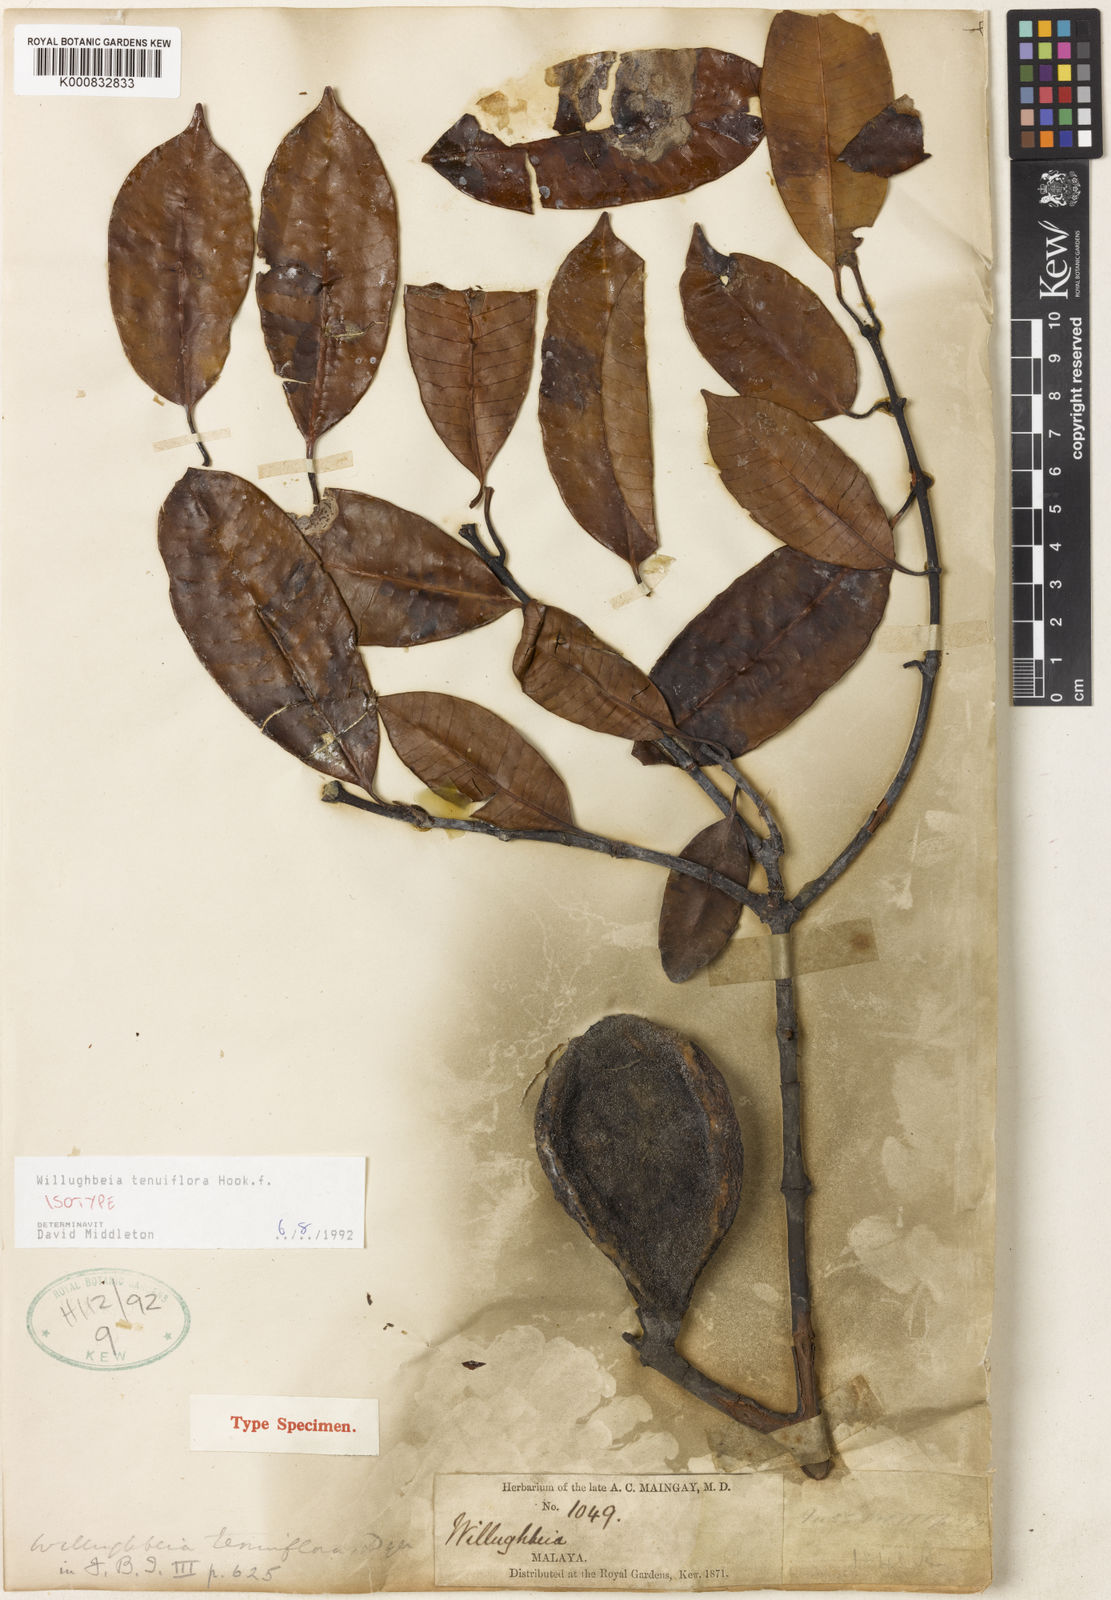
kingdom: Plantae
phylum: Tracheophyta
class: Magnoliopsida
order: Gentianales
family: Apocynaceae
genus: Willughbeia
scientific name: Willughbeia tenuiflora
